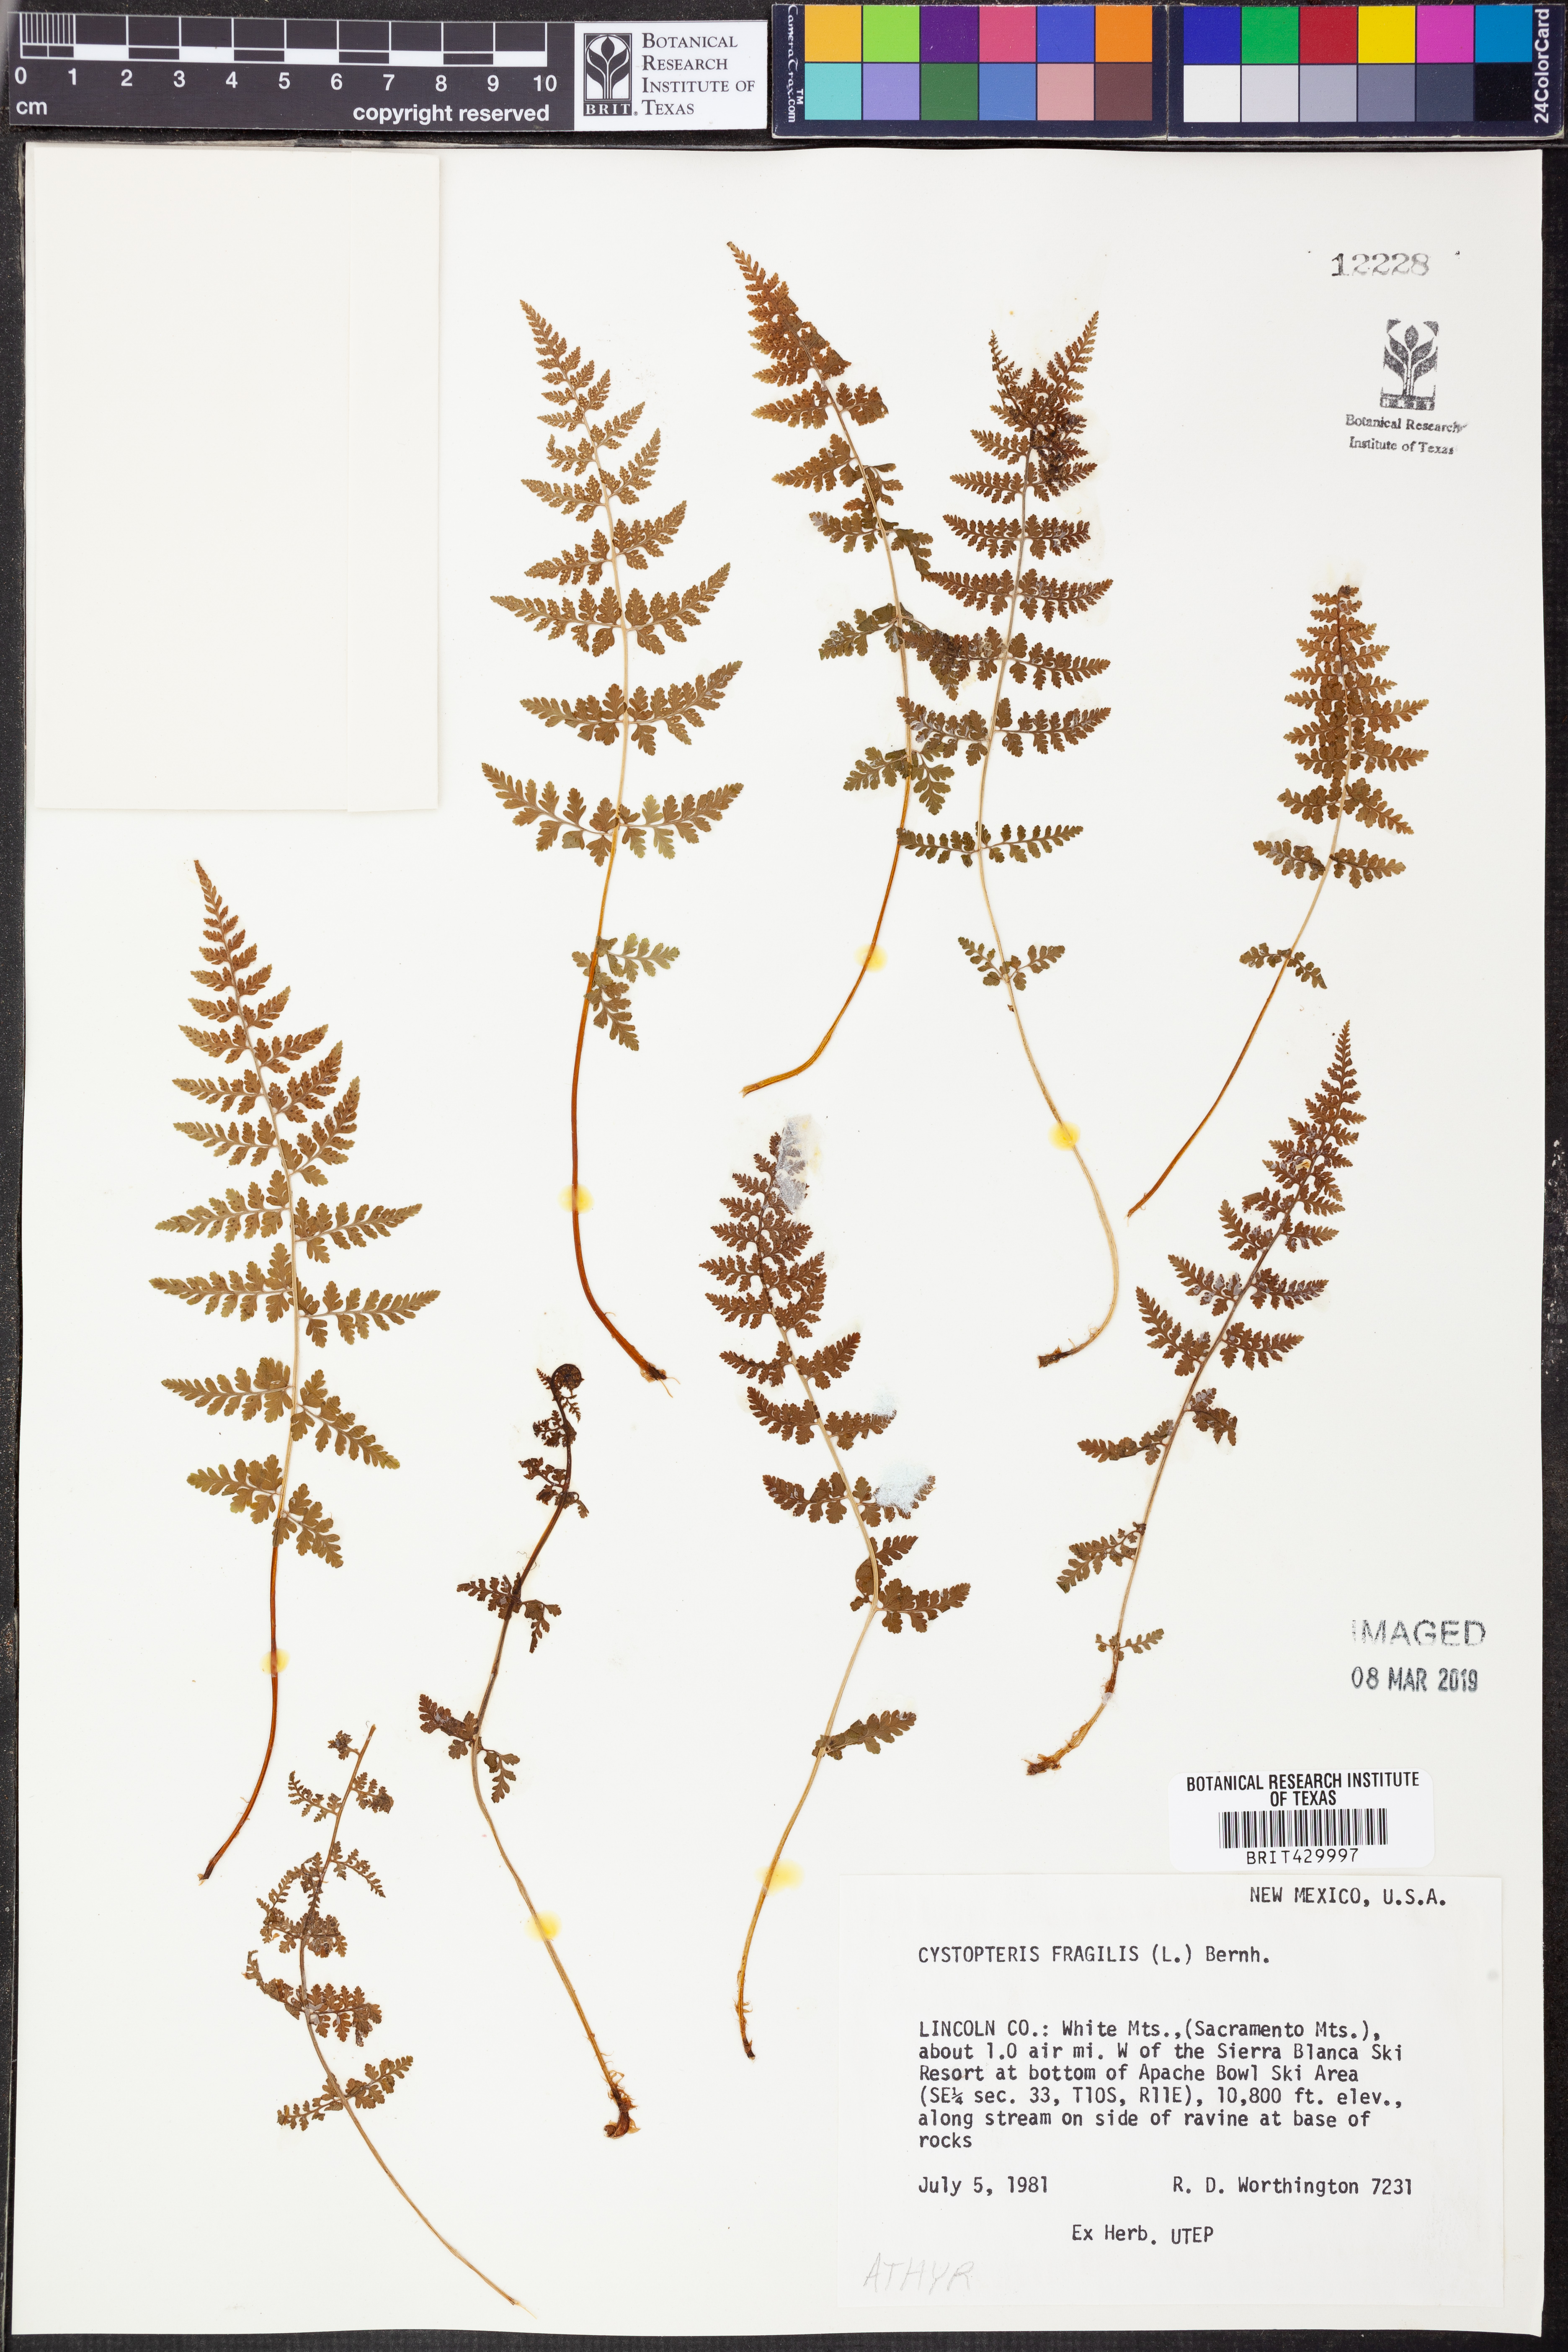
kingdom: Plantae
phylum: Tracheophyta
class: Polypodiopsida
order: Polypodiales
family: Cystopteridaceae
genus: Cystopteris
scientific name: Cystopteris fragilis
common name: Brittle bladder fern
